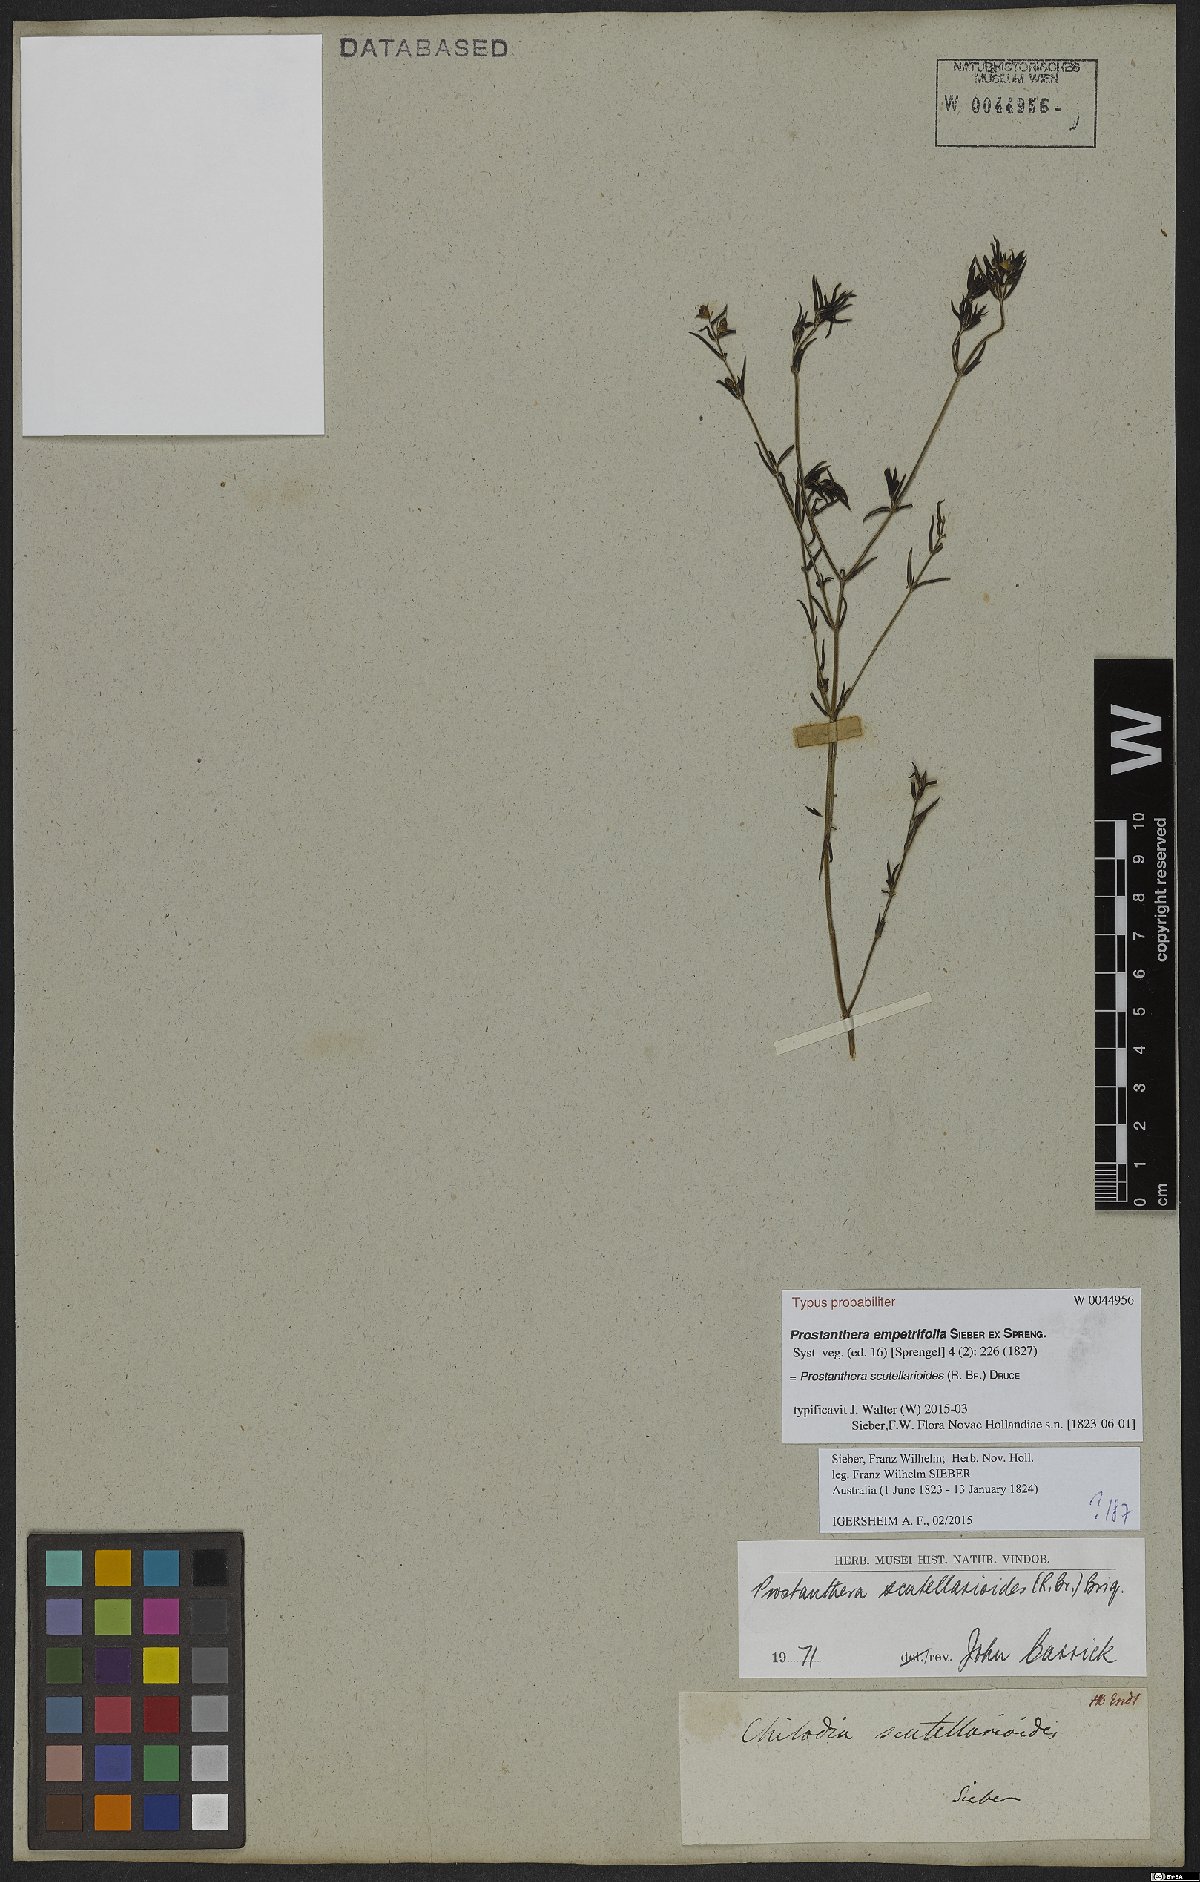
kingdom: Plantae
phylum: Tracheophyta
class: Magnoliopsida
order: Lamiales
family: Lamiaceae
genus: Prostanthera
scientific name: Prostanthera scutellarioides
